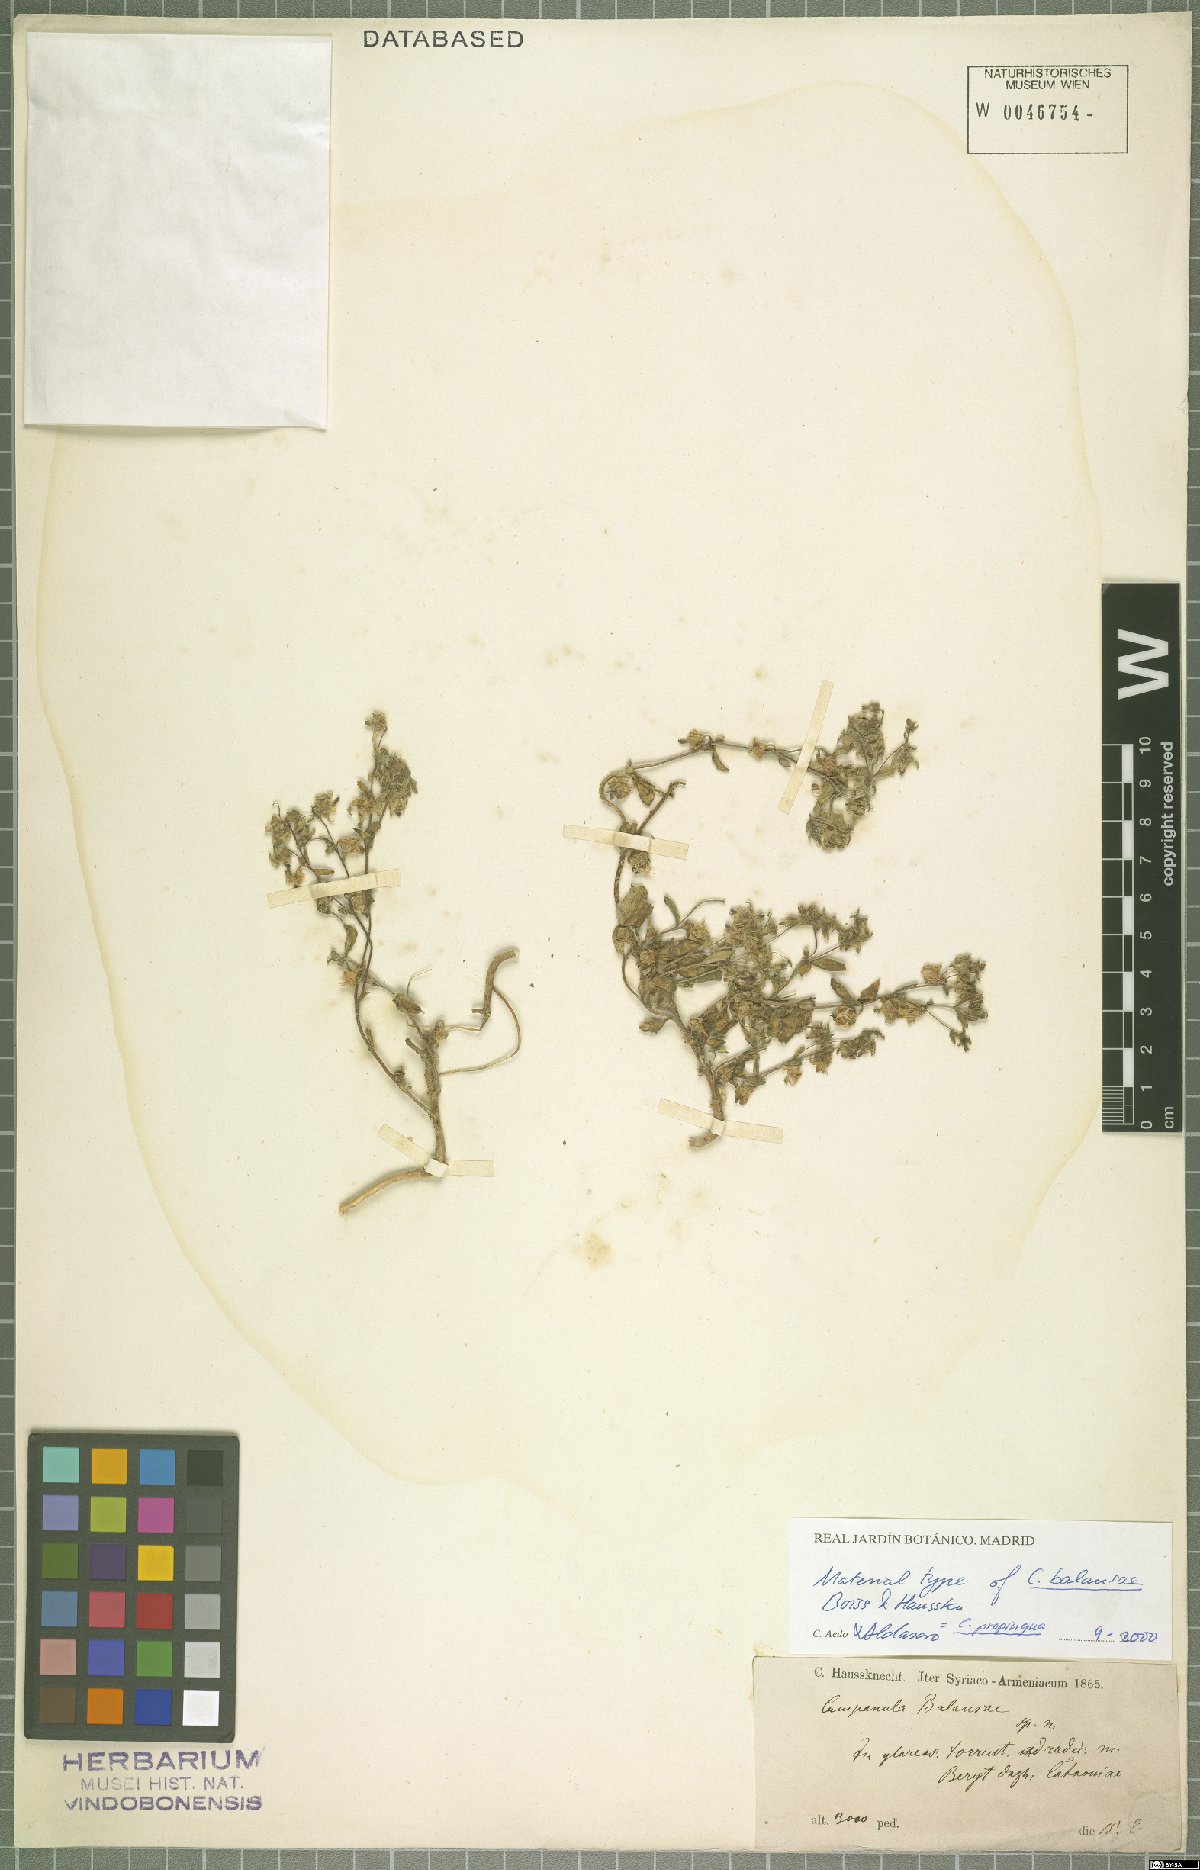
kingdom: Plantae
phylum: Tracheophyta
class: Magnoliopsida
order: Asterales
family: Campanulaceae
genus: Campanula
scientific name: Campanula propinqua
